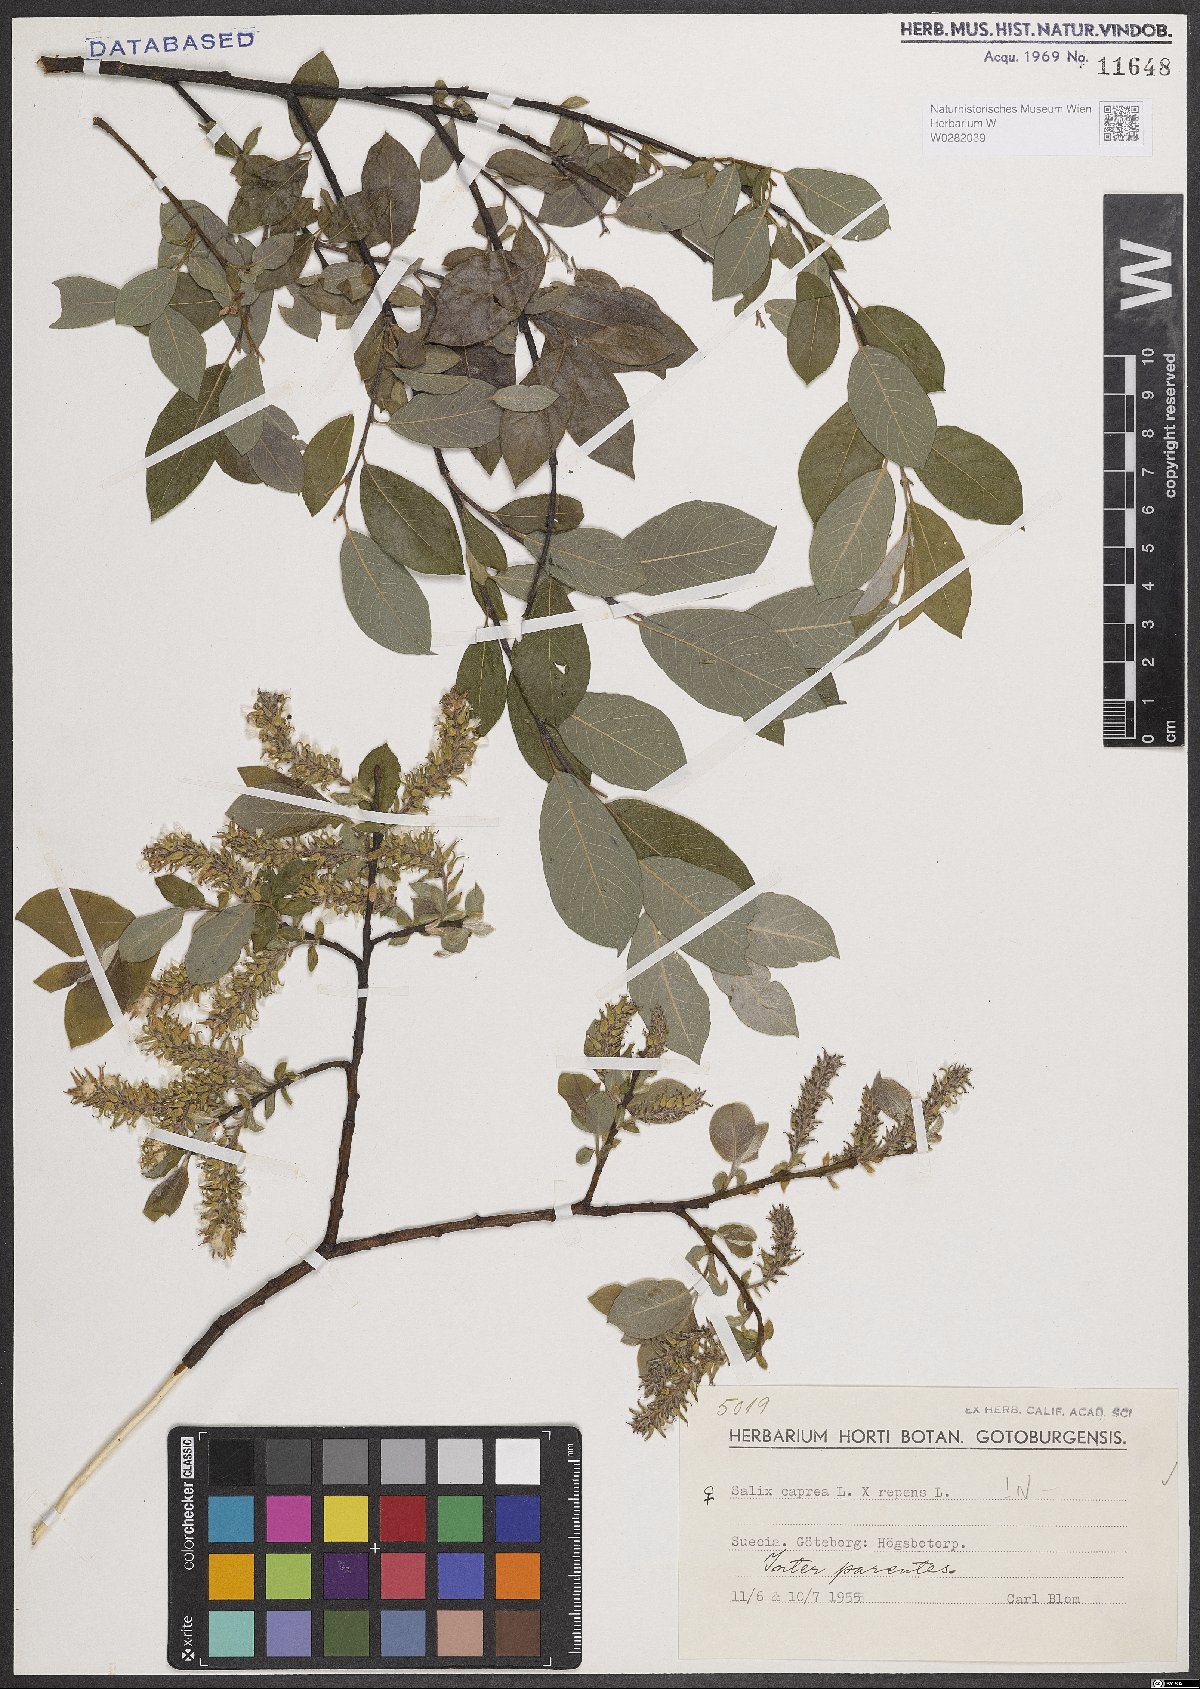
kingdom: Plantae
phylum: Tracheophyta
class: Magnoliopsida
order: Malpighiales
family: Salicaceae
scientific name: Salicaceae
